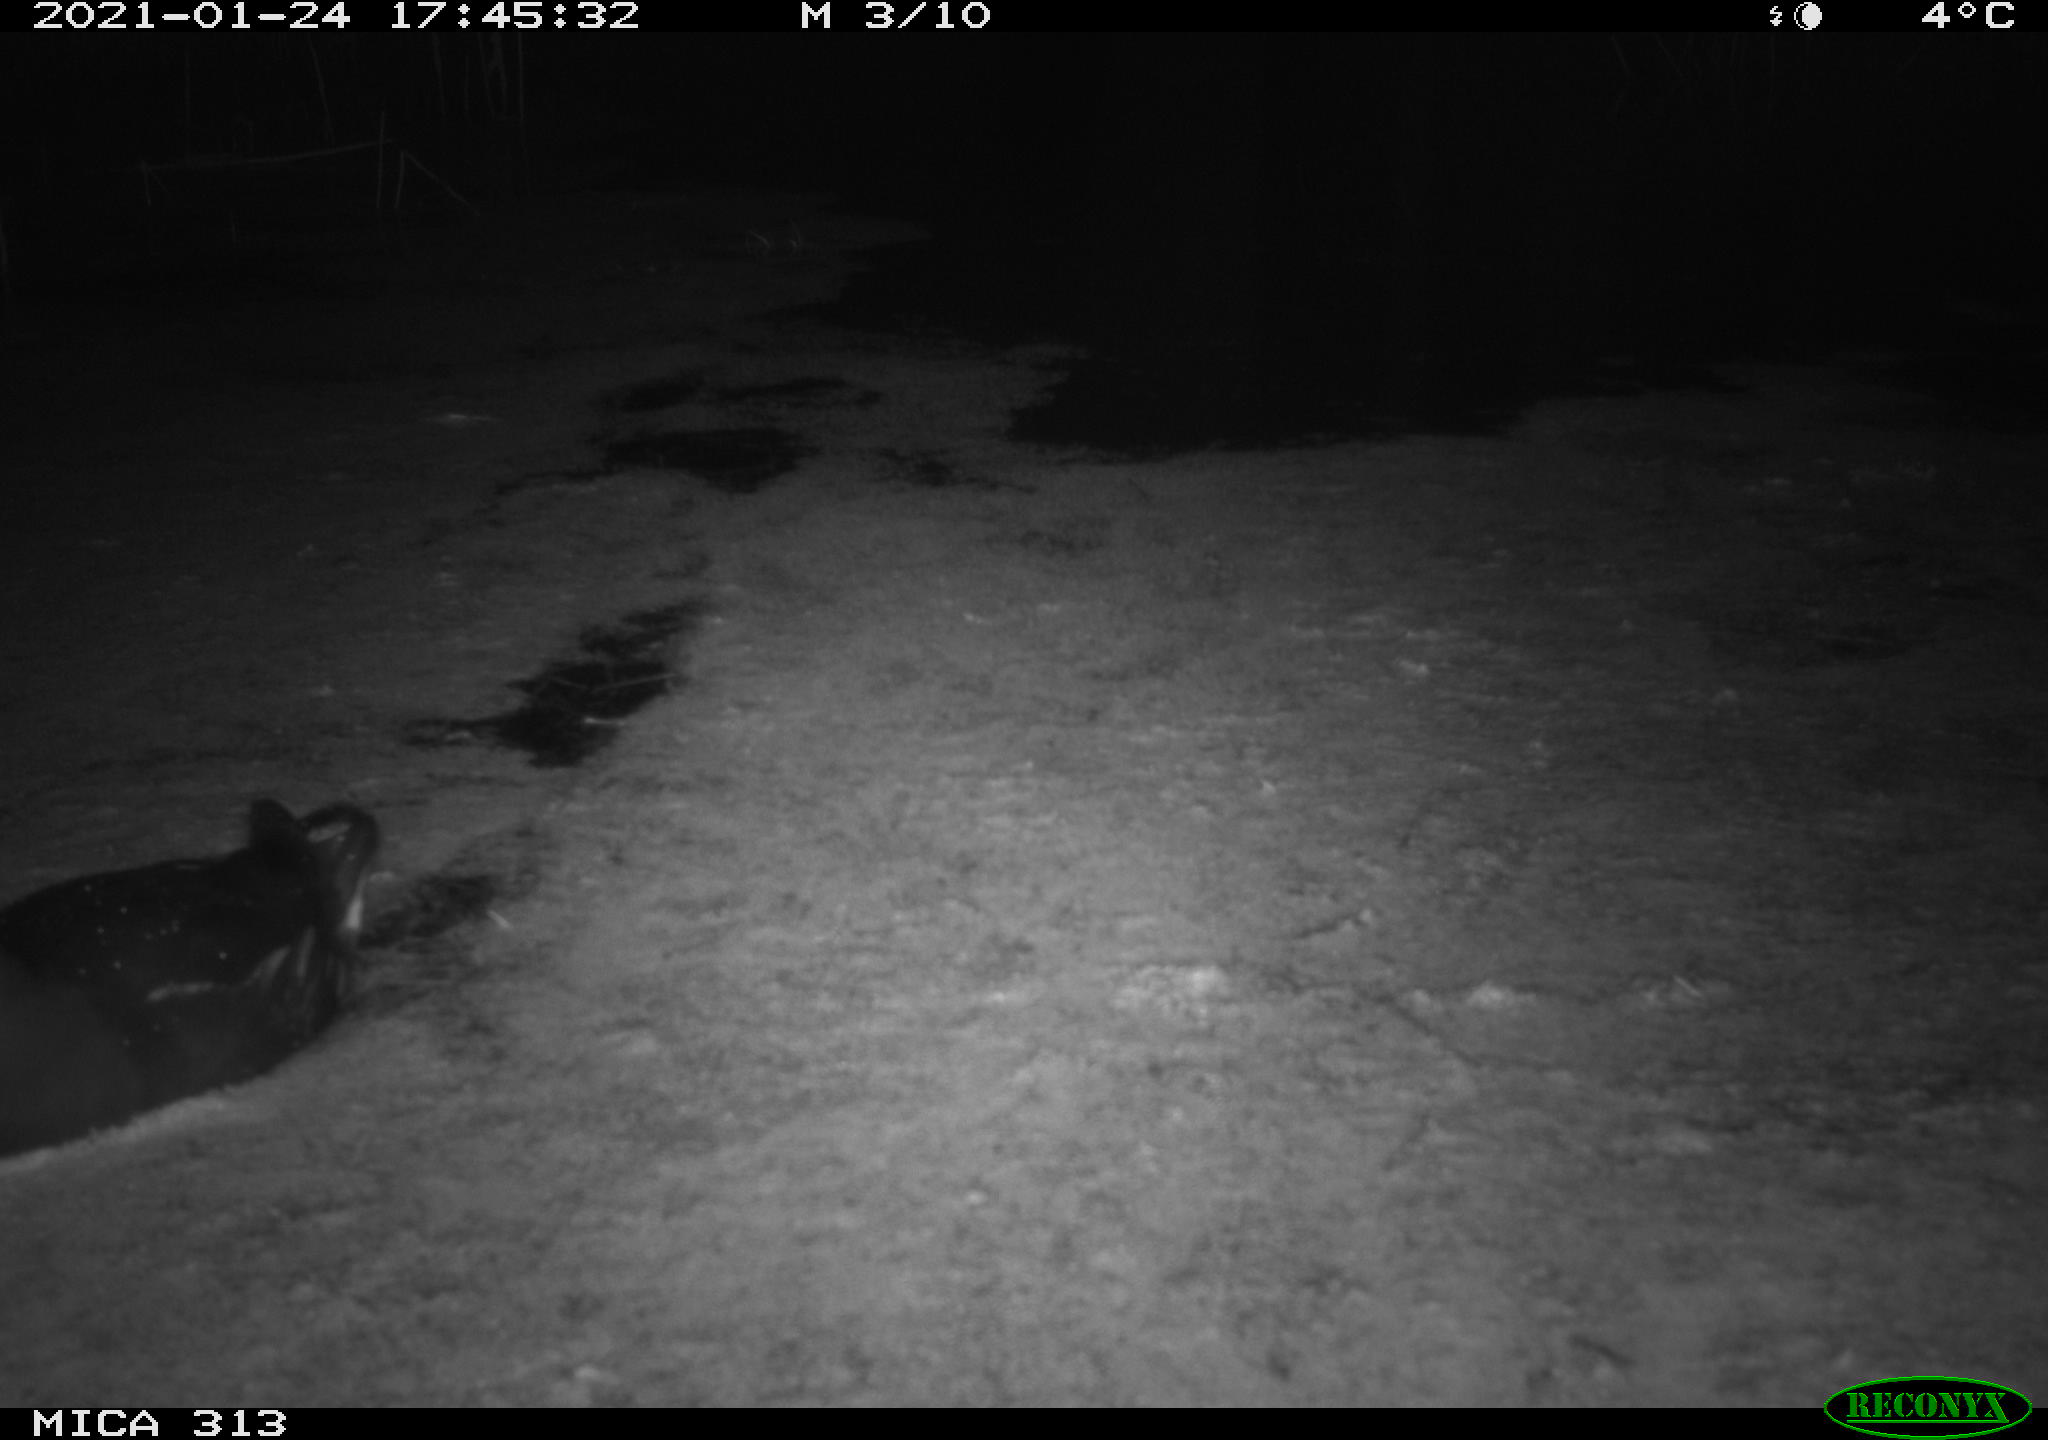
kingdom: Animalia
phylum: Chordata
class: Aves
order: Gruiformes
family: Rallidae
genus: Fulica
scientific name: Fulica atra
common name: Eurasian coot
